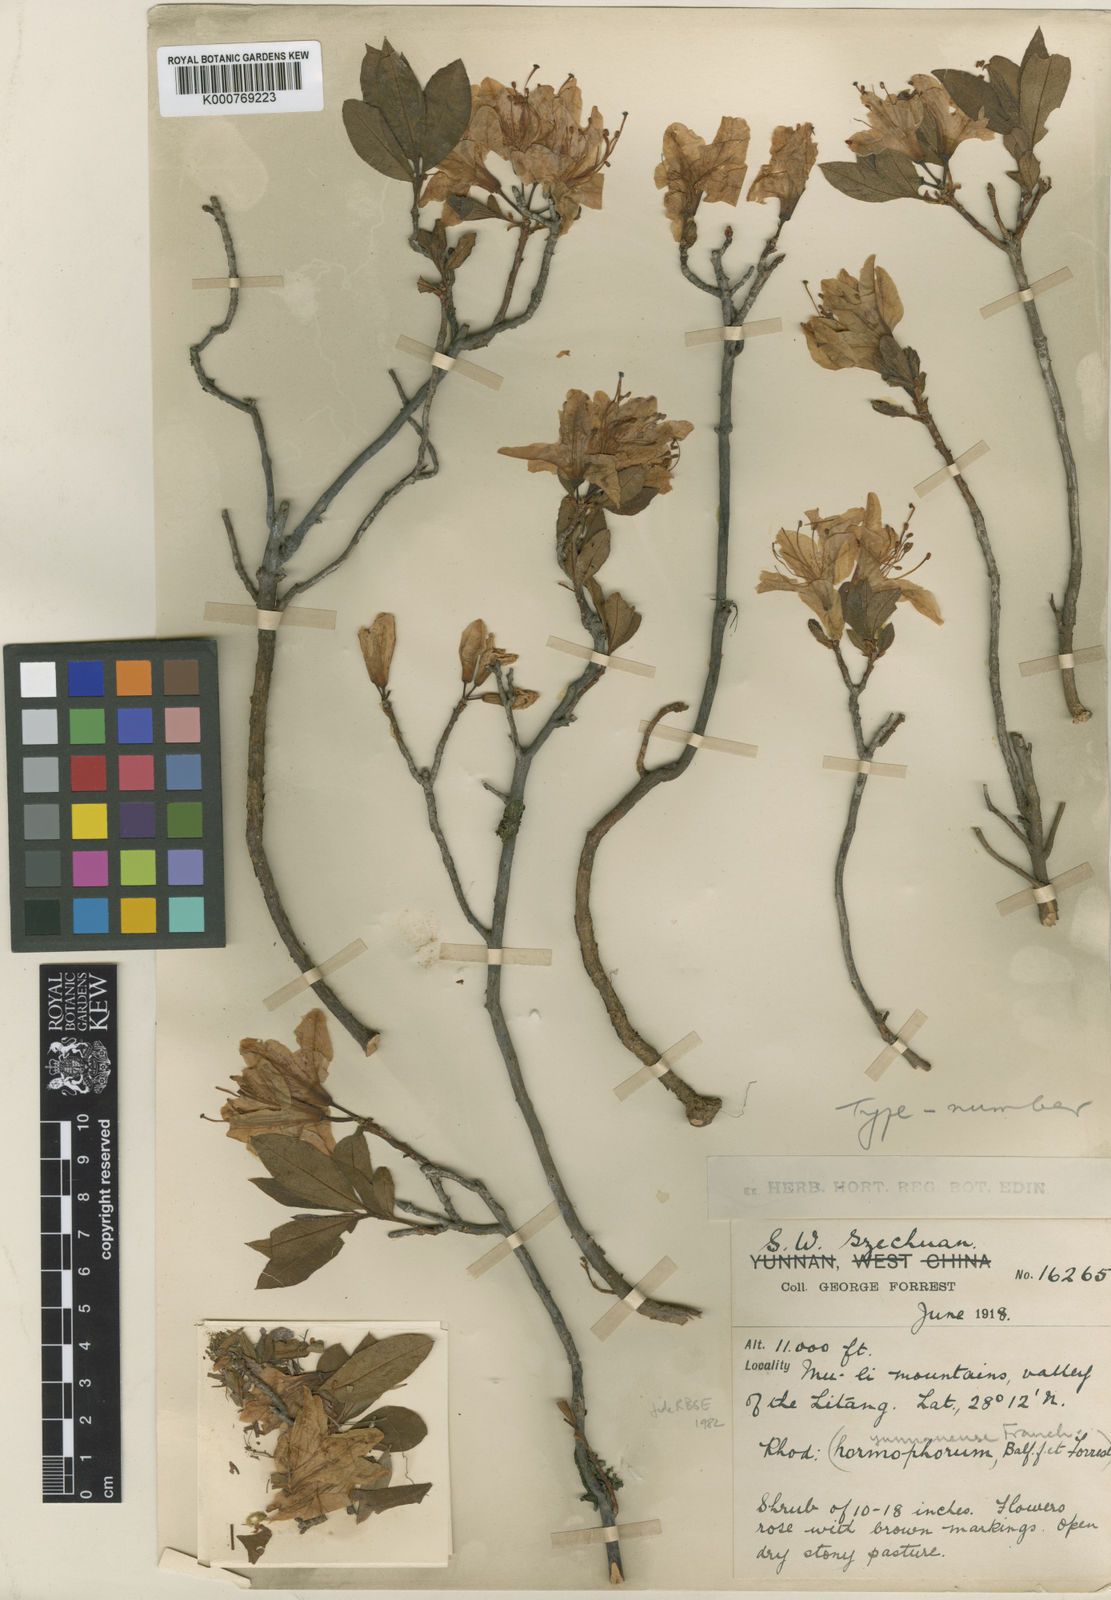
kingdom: Plantae
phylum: Tracheophyta
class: Magnoliopsida
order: Ericales
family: Ericaceae
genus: Rhododendron
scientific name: Rhododendron yunnanense
